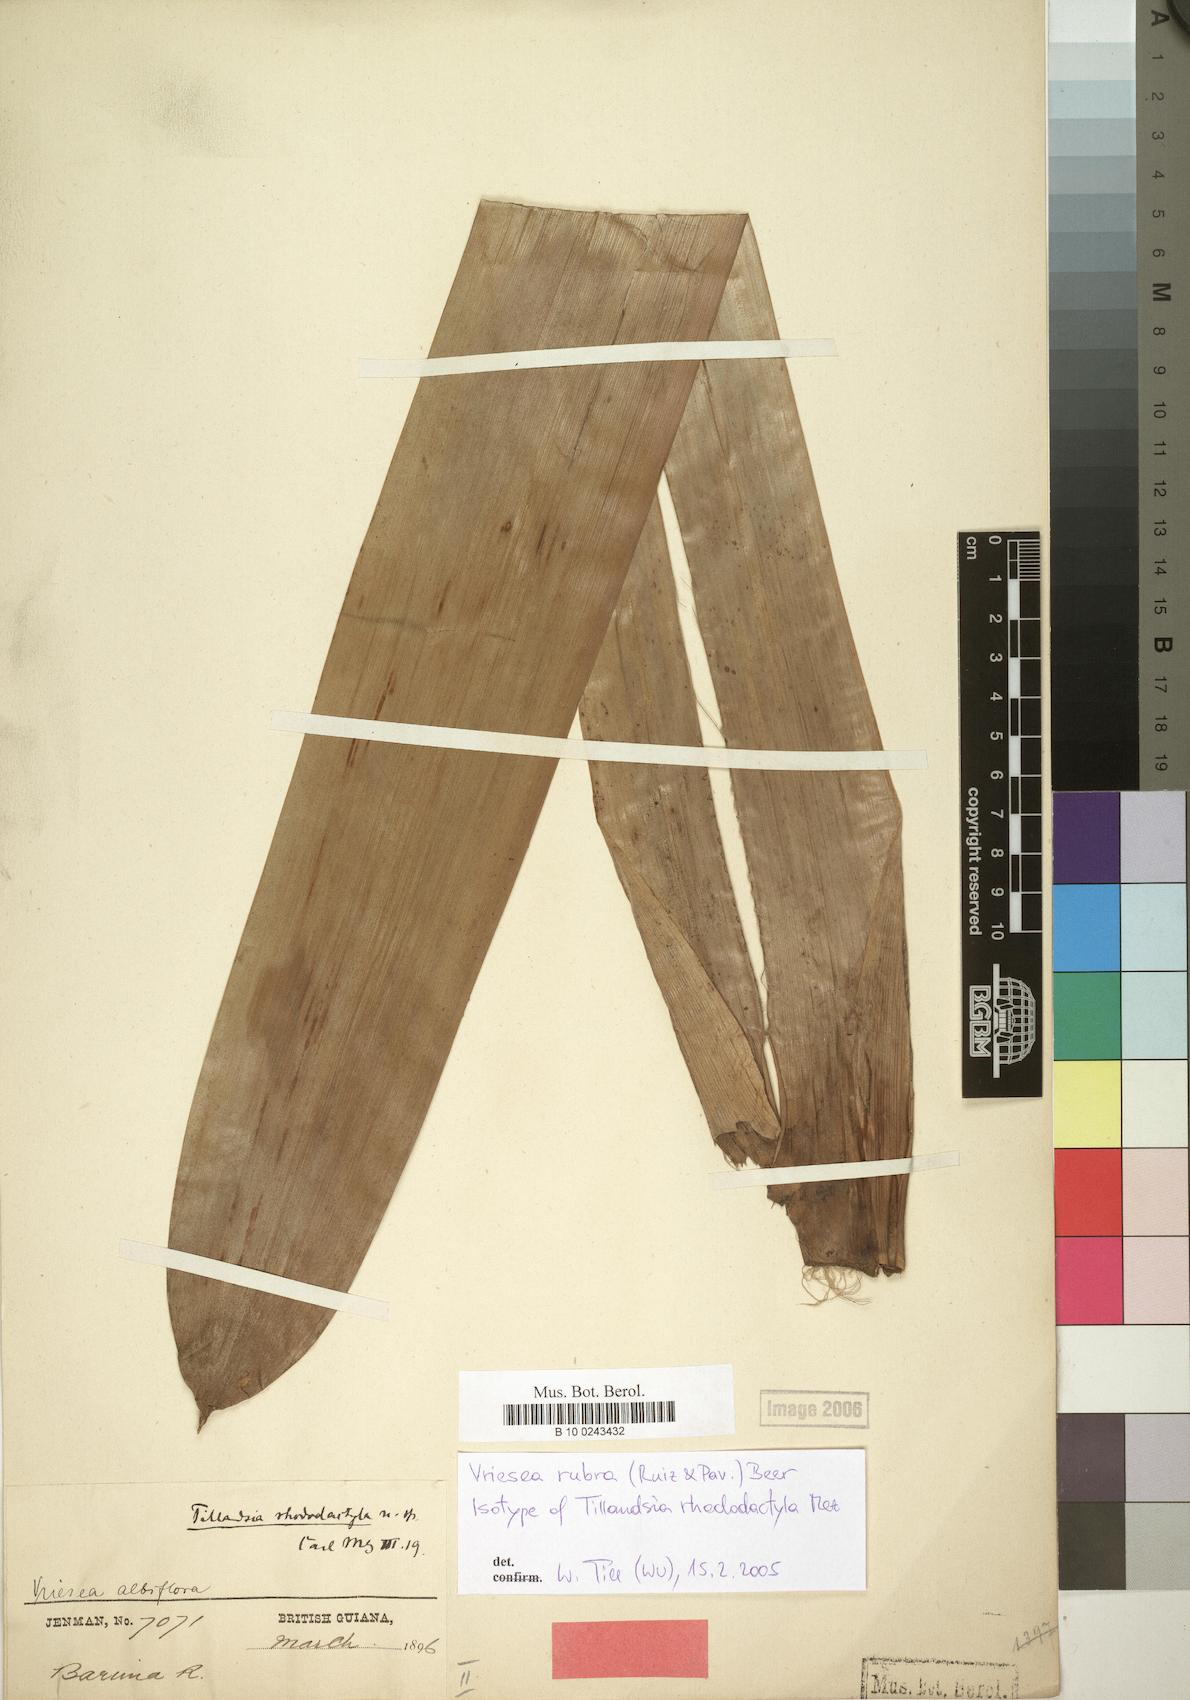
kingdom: Plantae
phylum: Tracheophyta
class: Liliopsida
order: Poales
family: Bromeliaceae
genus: Vriesea
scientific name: Vriesea rubra
